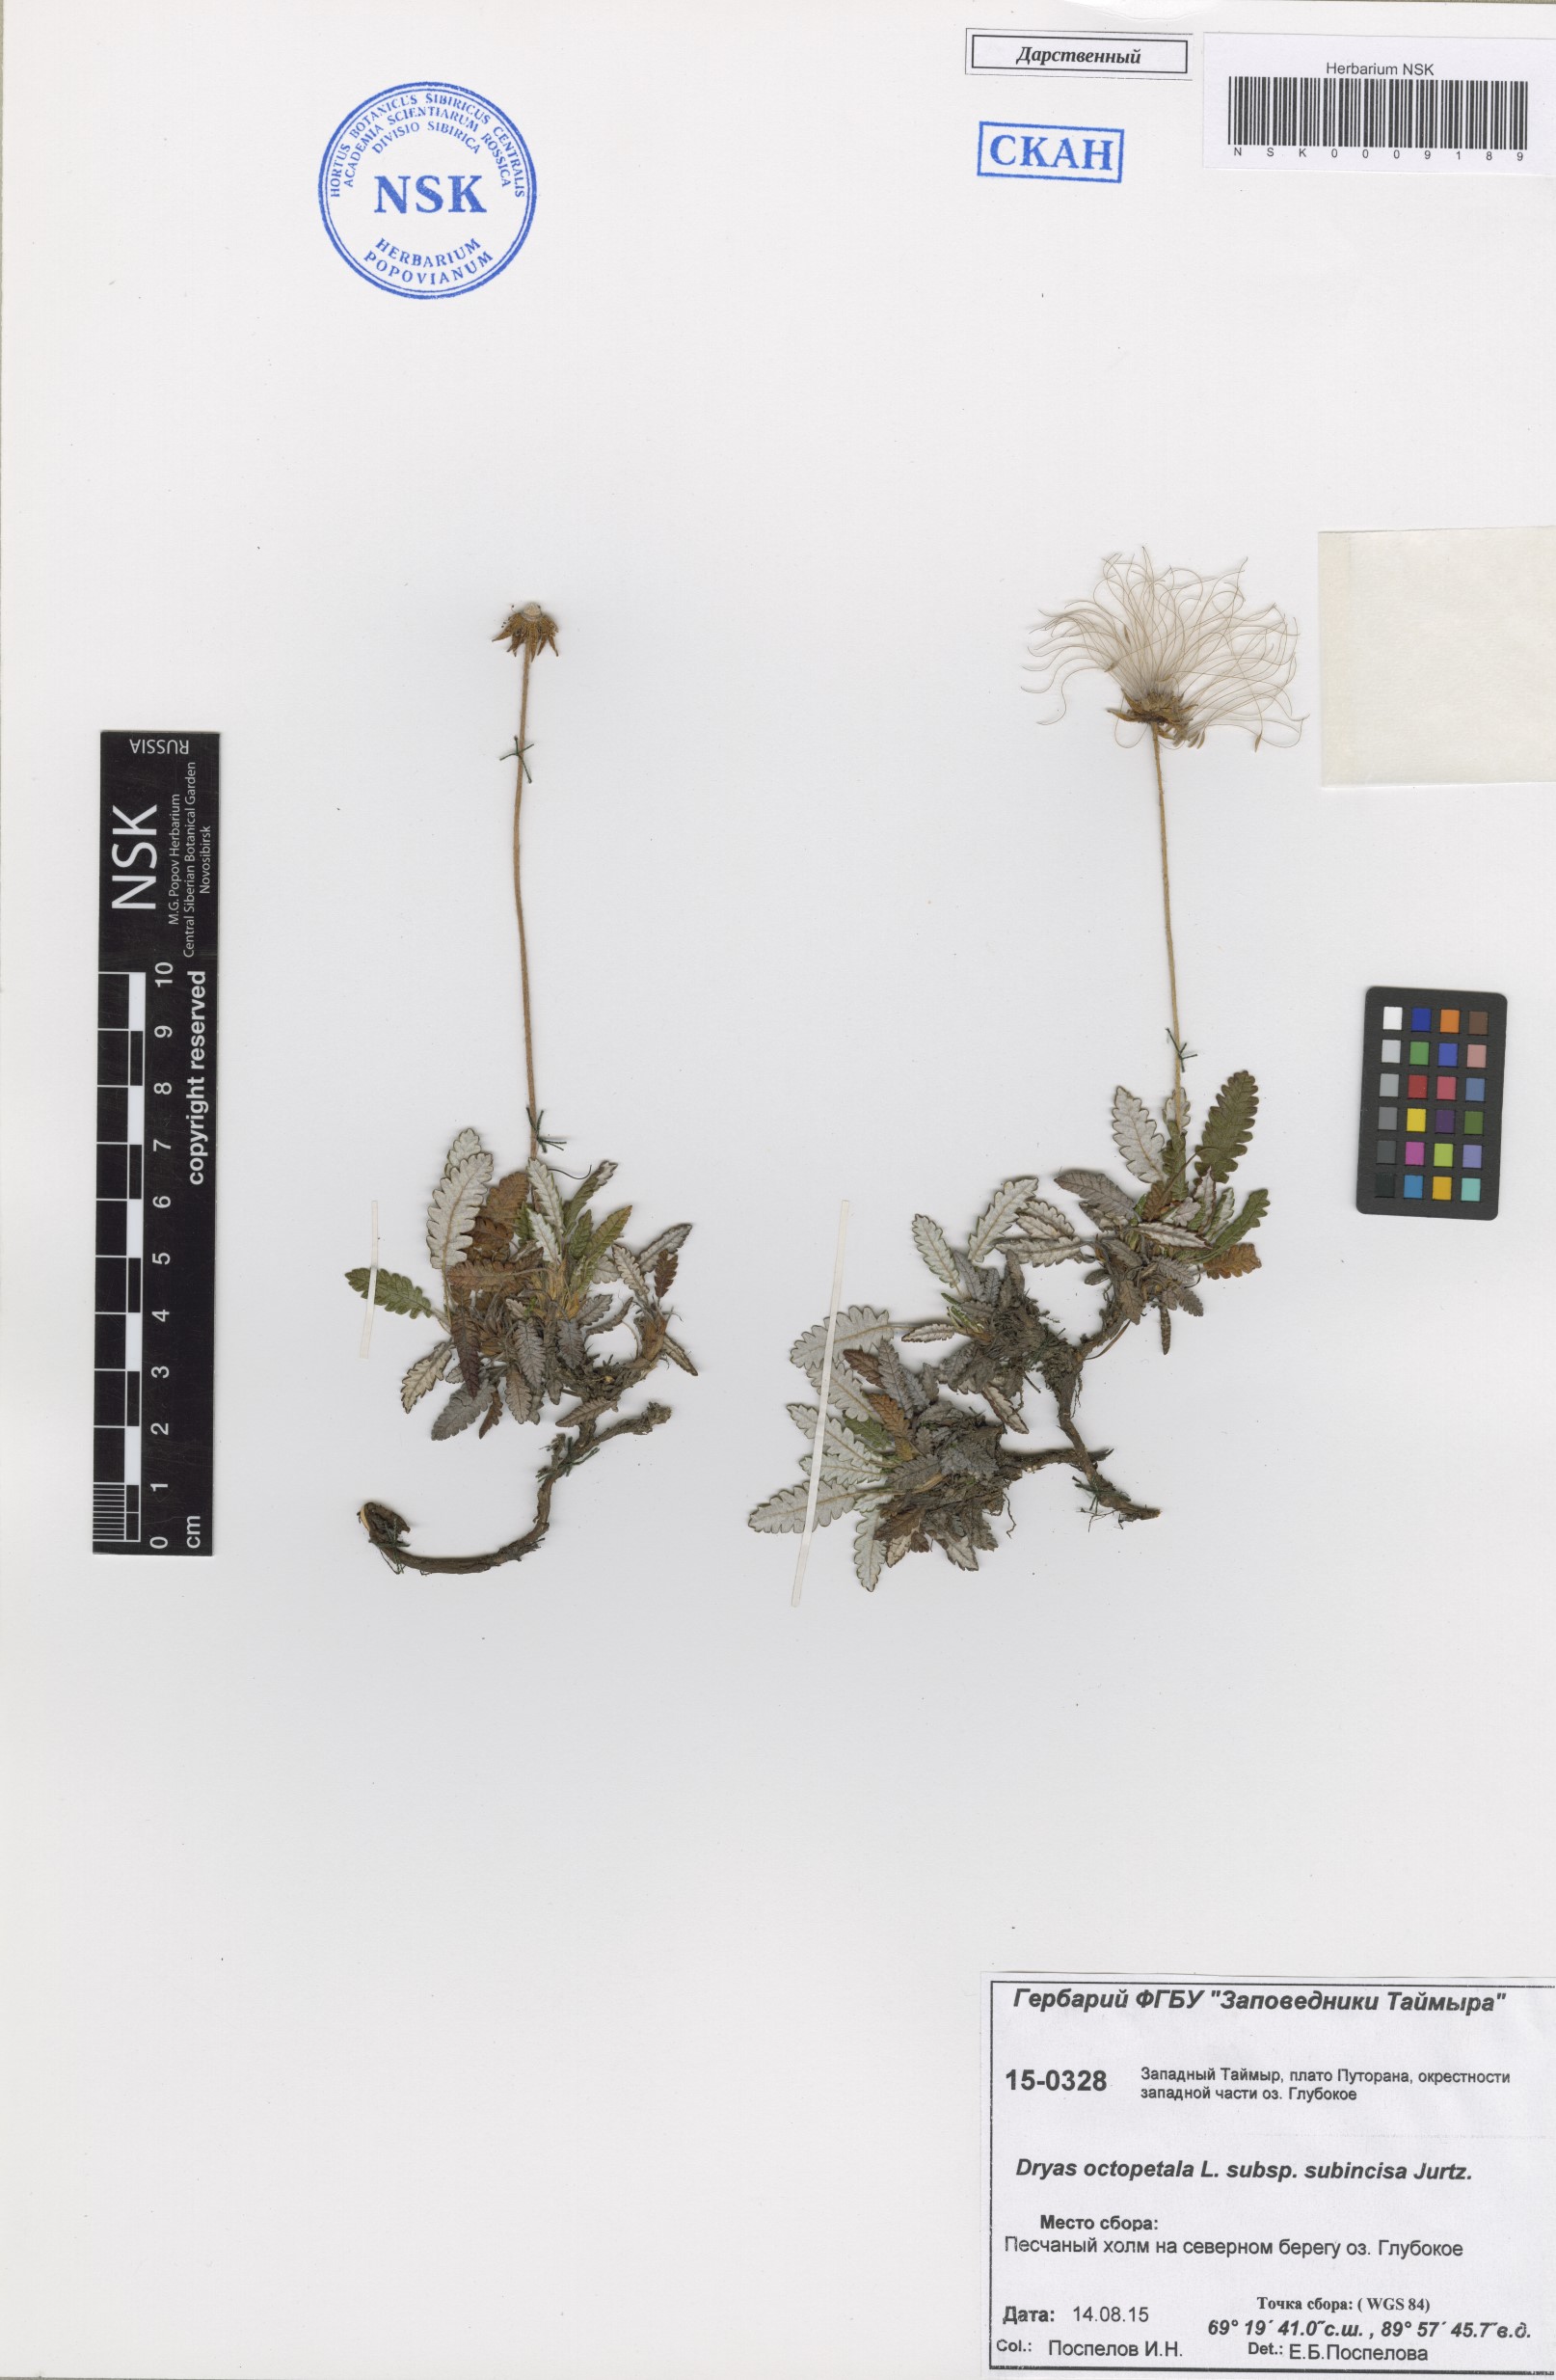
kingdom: Plantae
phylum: Tracheophyta
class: Magnoliopsida
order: Rosales
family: Rosaceae
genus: Dryas
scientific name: Dryas octopetala
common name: Eight-petal mountain-avens
